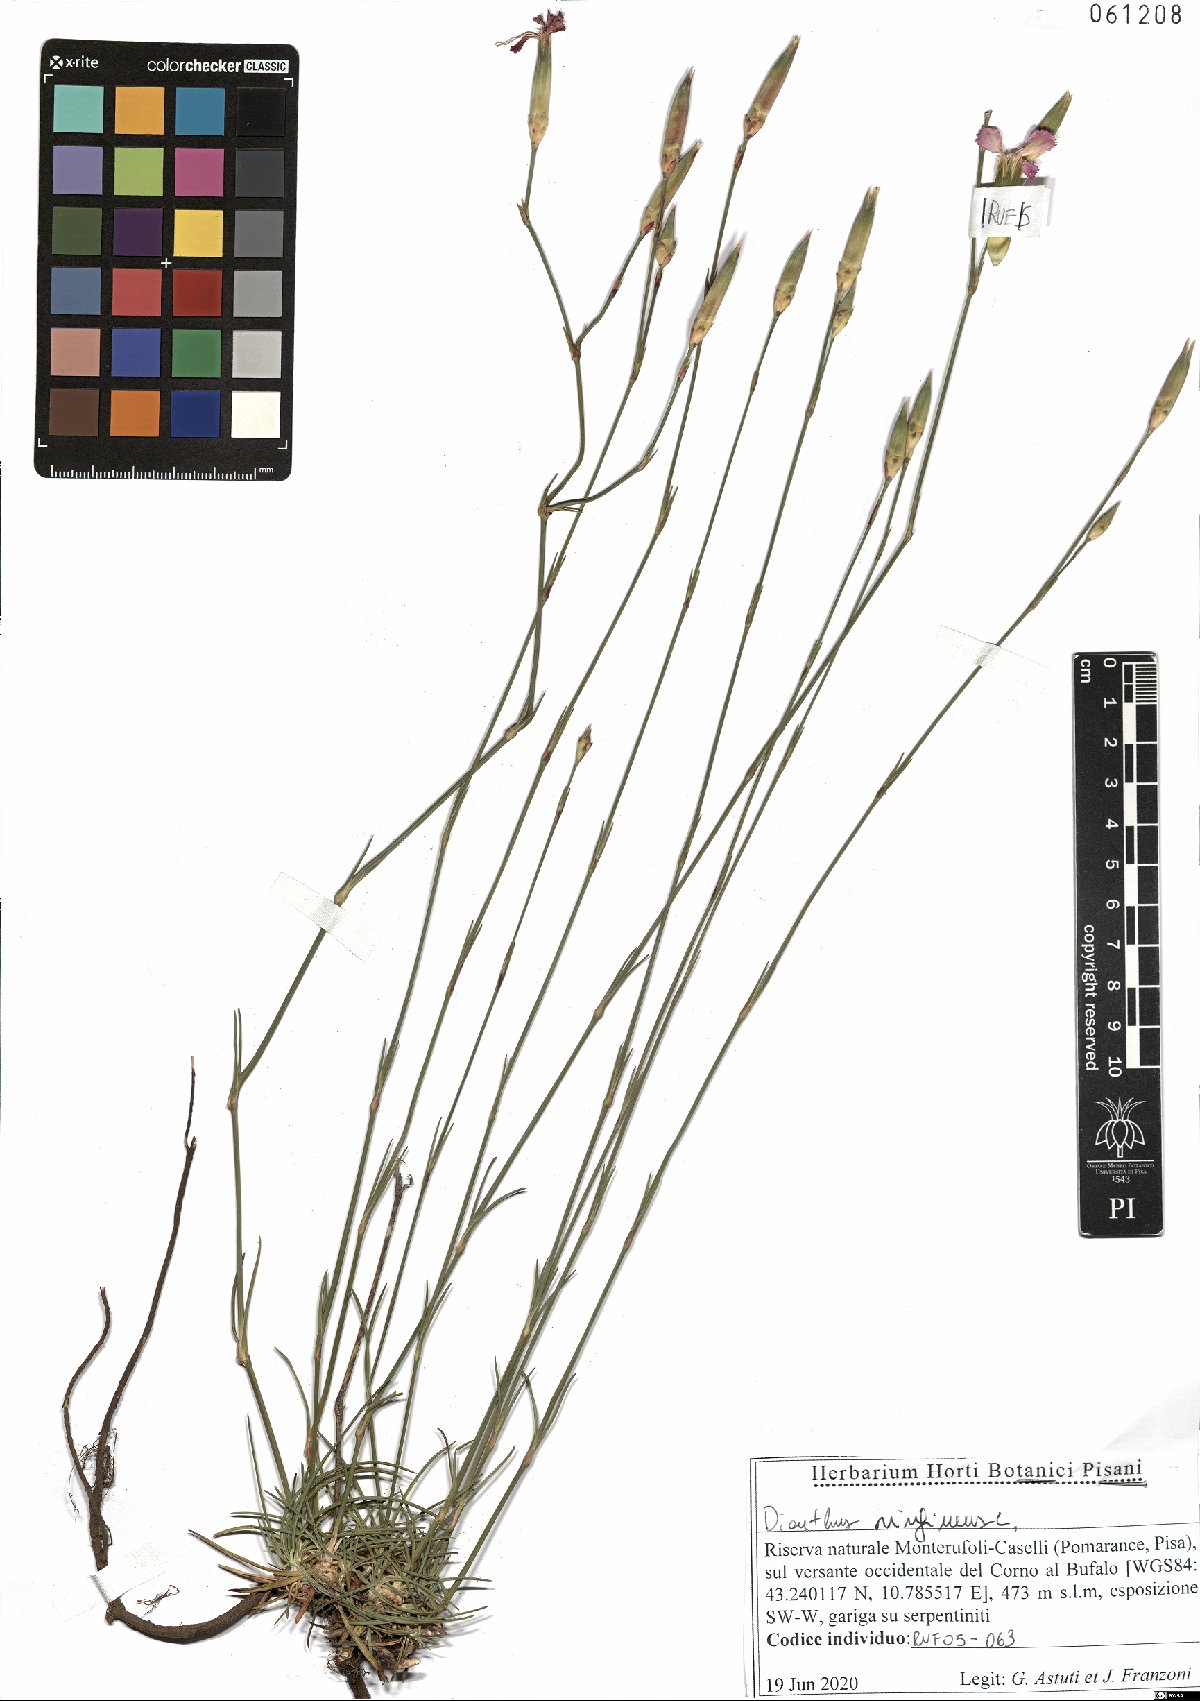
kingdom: Plantae
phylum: Tracheophyta
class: Magnoliopsida
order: Caryophyllales
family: Caryophyllaceae
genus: Dianthus
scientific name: Dianthus virgineus
